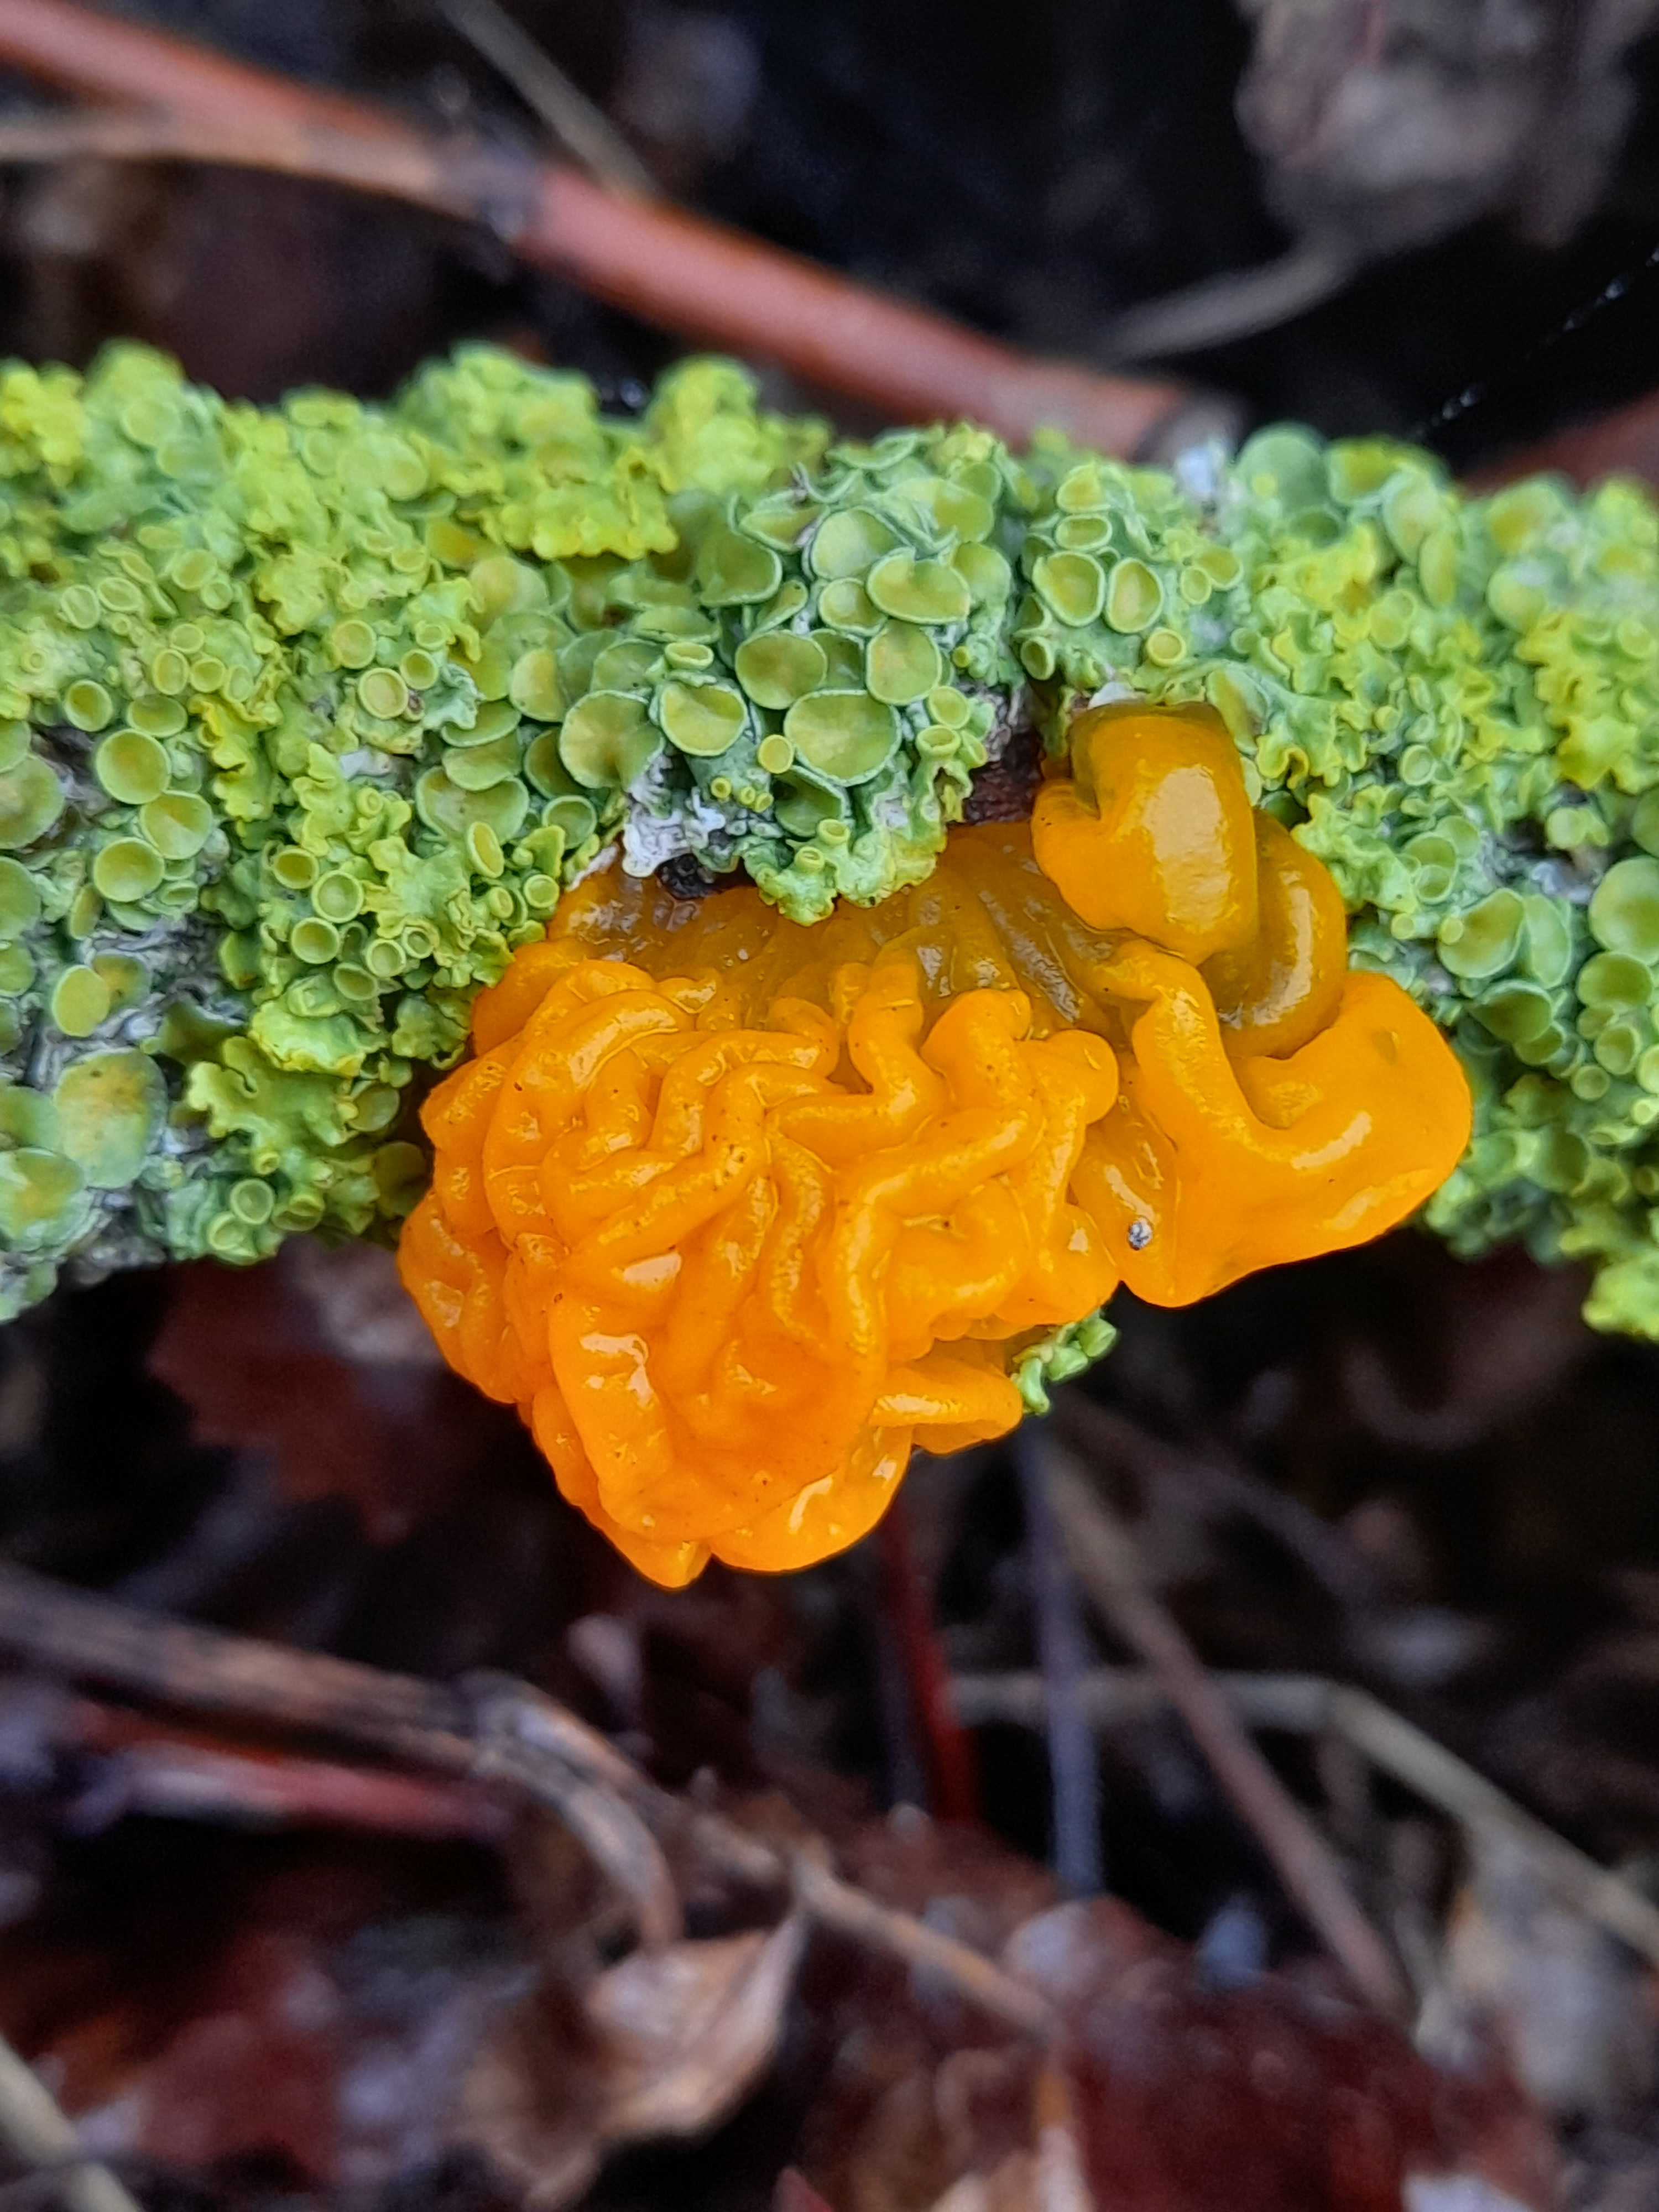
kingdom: Fungi
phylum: Basidiomycota
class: Tremellomycetes
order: Tremellales
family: Tremellaceae
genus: Tremella
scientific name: Tremella mesenterica
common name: gul bævresvamp
